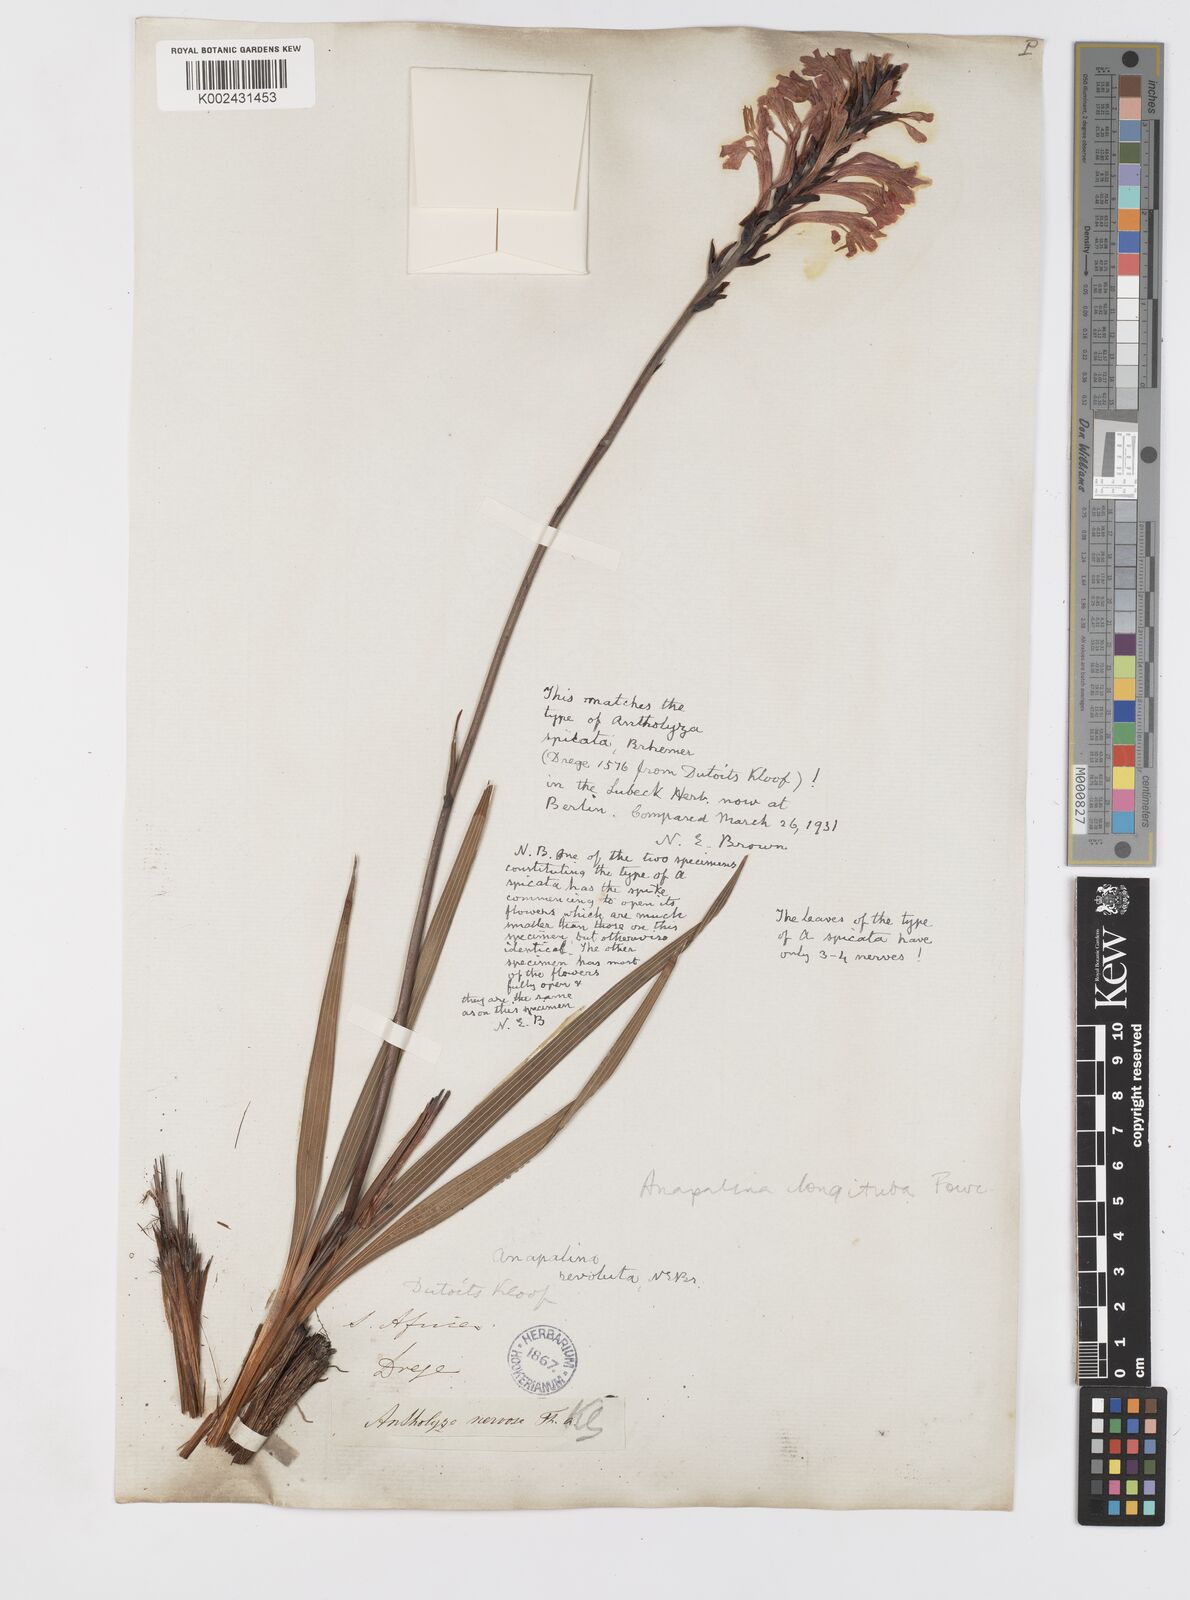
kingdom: Plantae
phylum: Tracheophyta
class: Liliopsida
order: Asparagales
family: Iridaceae
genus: Tritoniopsis
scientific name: Tritoniopsis antholyza
